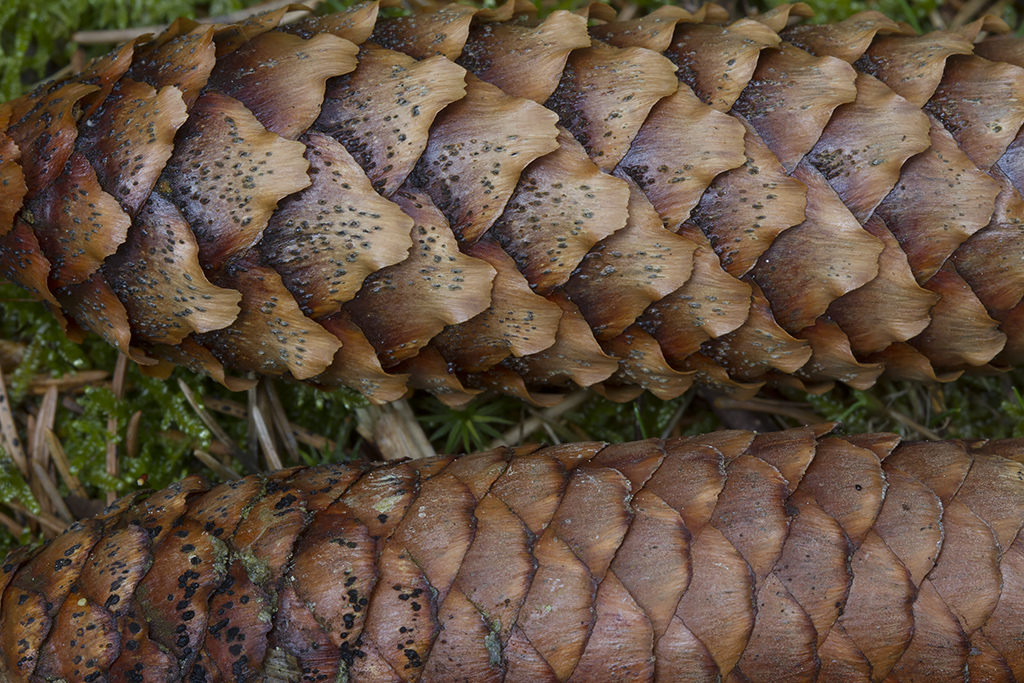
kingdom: Fungi
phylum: Ascomycota
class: Dothideomycetes
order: Pleosporales
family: Melanommataceae
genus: Phragmotrichum
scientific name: Phragmotrichum chailletii
